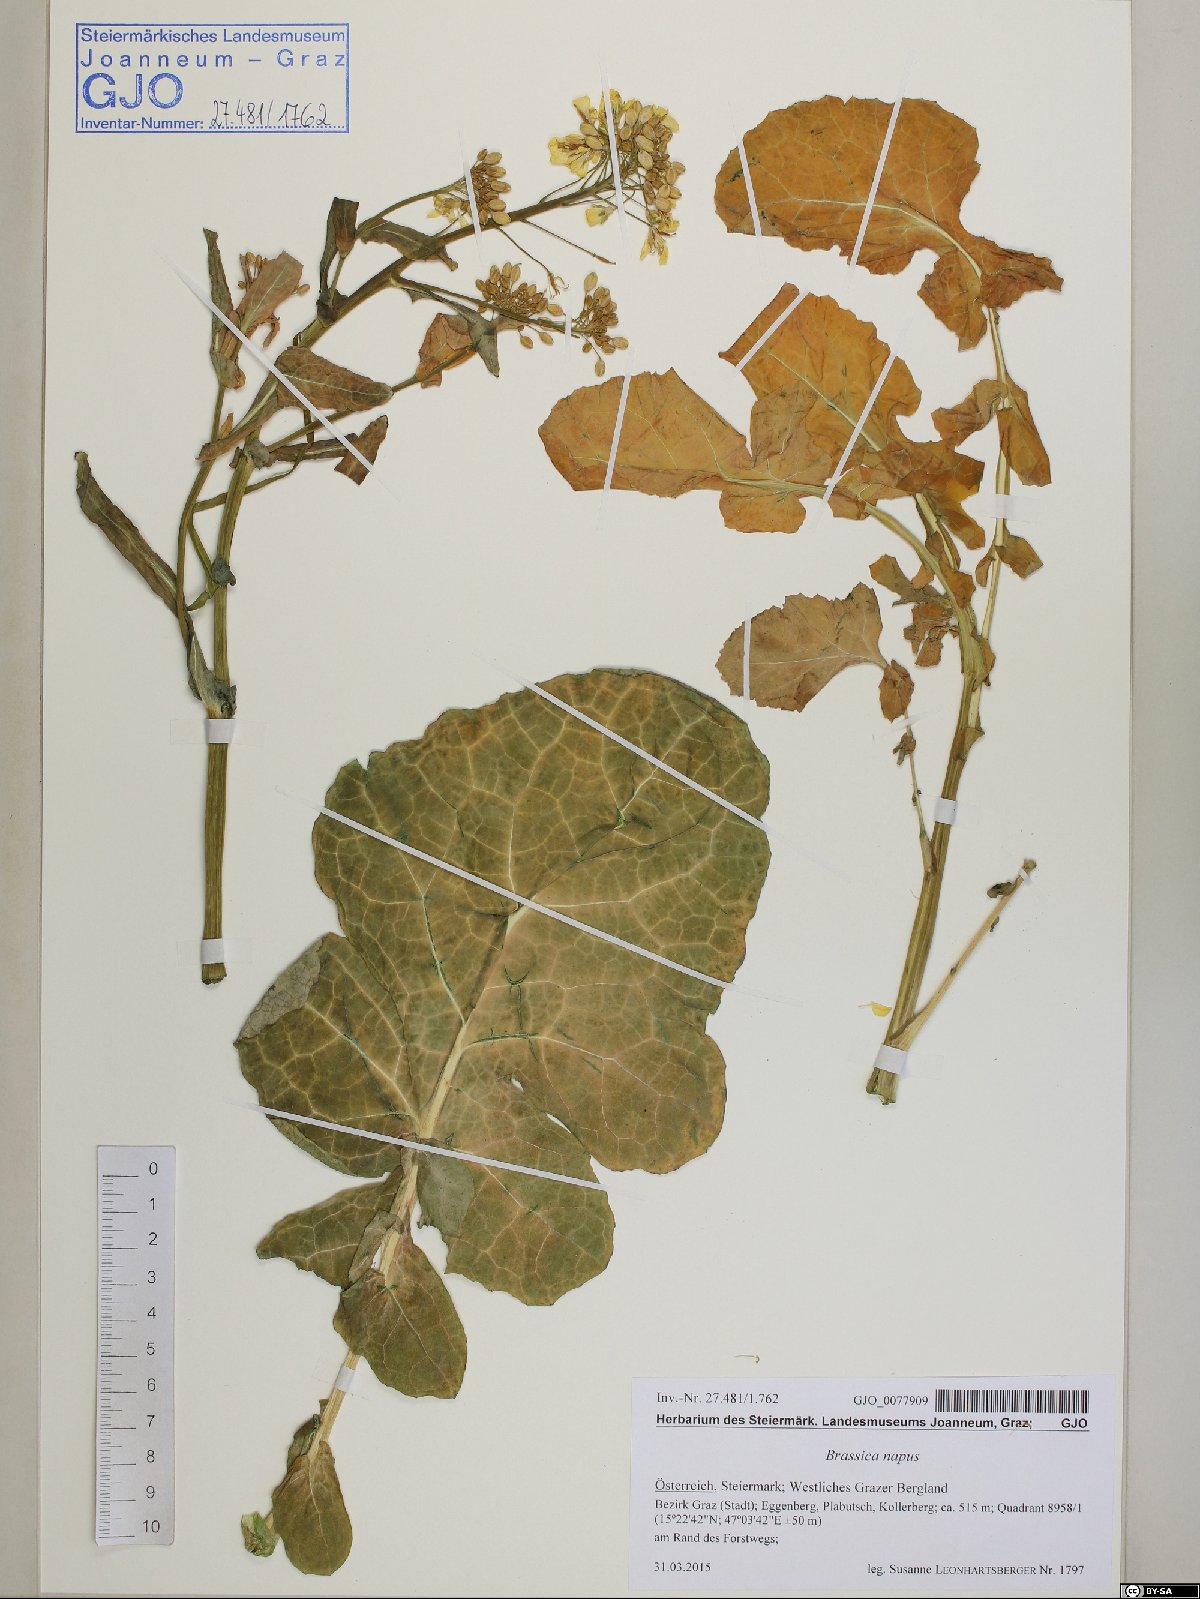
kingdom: Plantae
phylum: Tracheophyta
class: Magnoliopsida
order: Brassicales
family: Brassicaceae
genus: Brassica
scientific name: Brassica napus
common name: Rape
